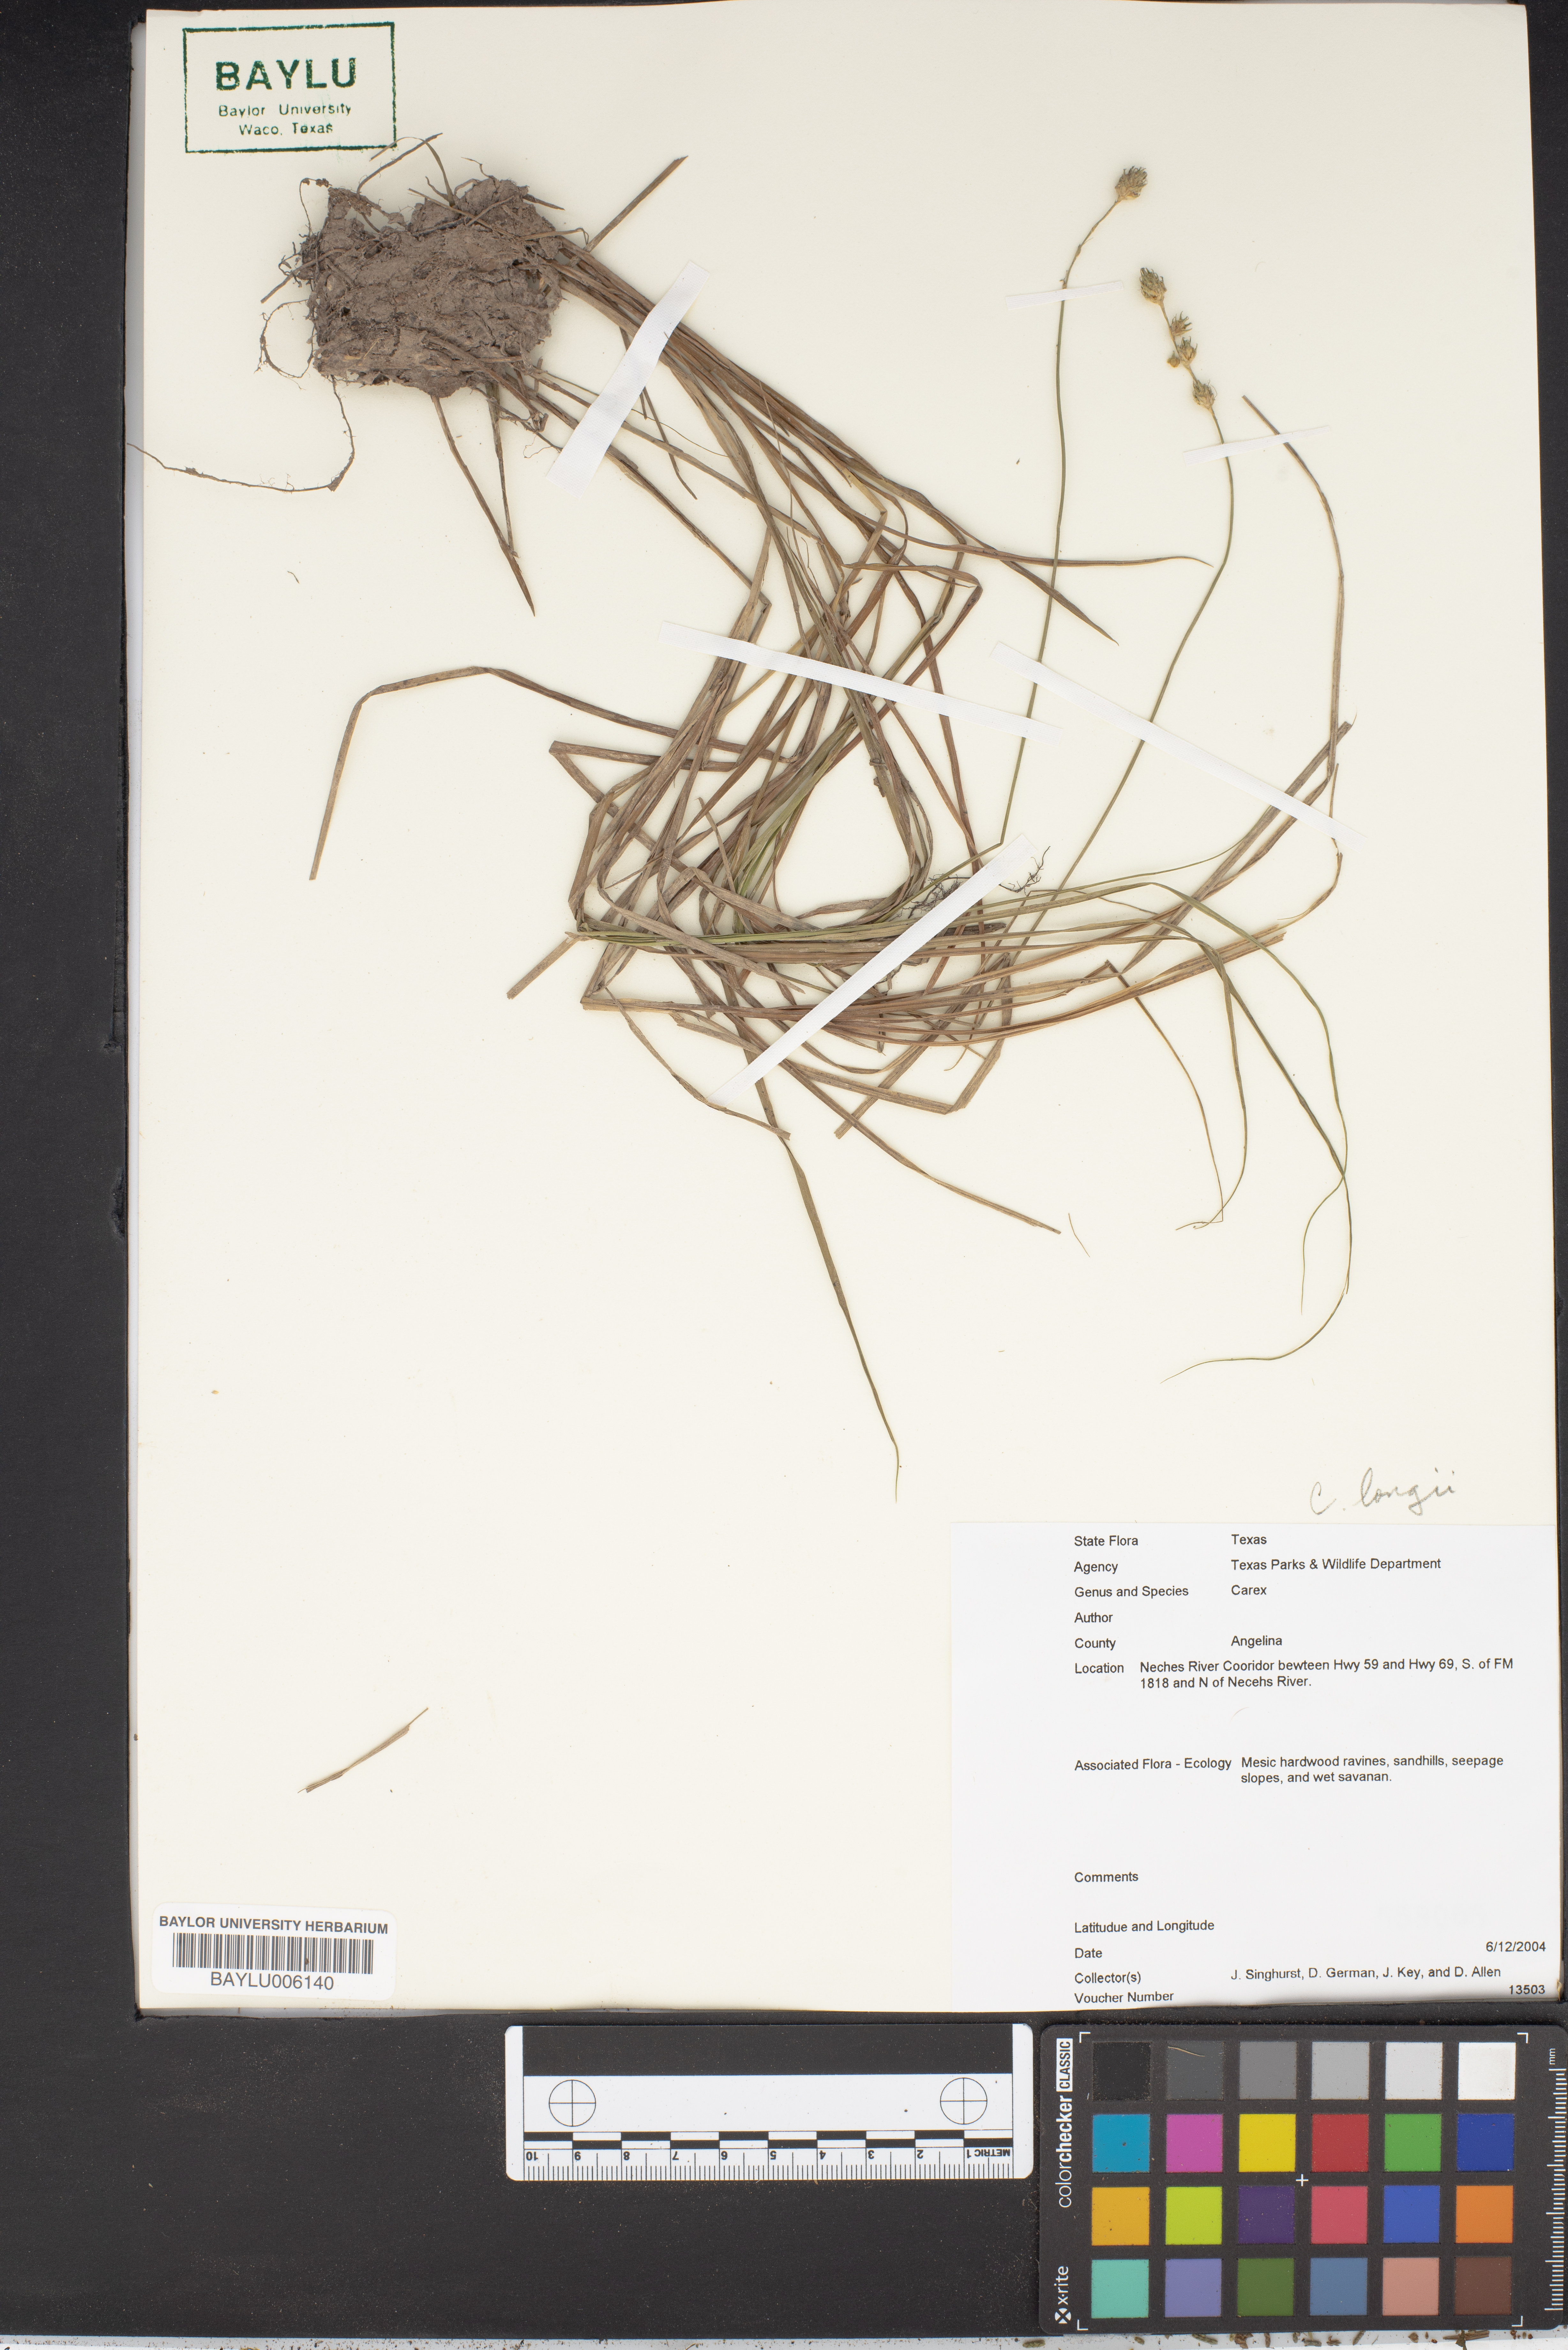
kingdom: Plantae
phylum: Tracheophyta
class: Liliopsida
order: Poales
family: Cyperaceae
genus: Carex
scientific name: Carex
